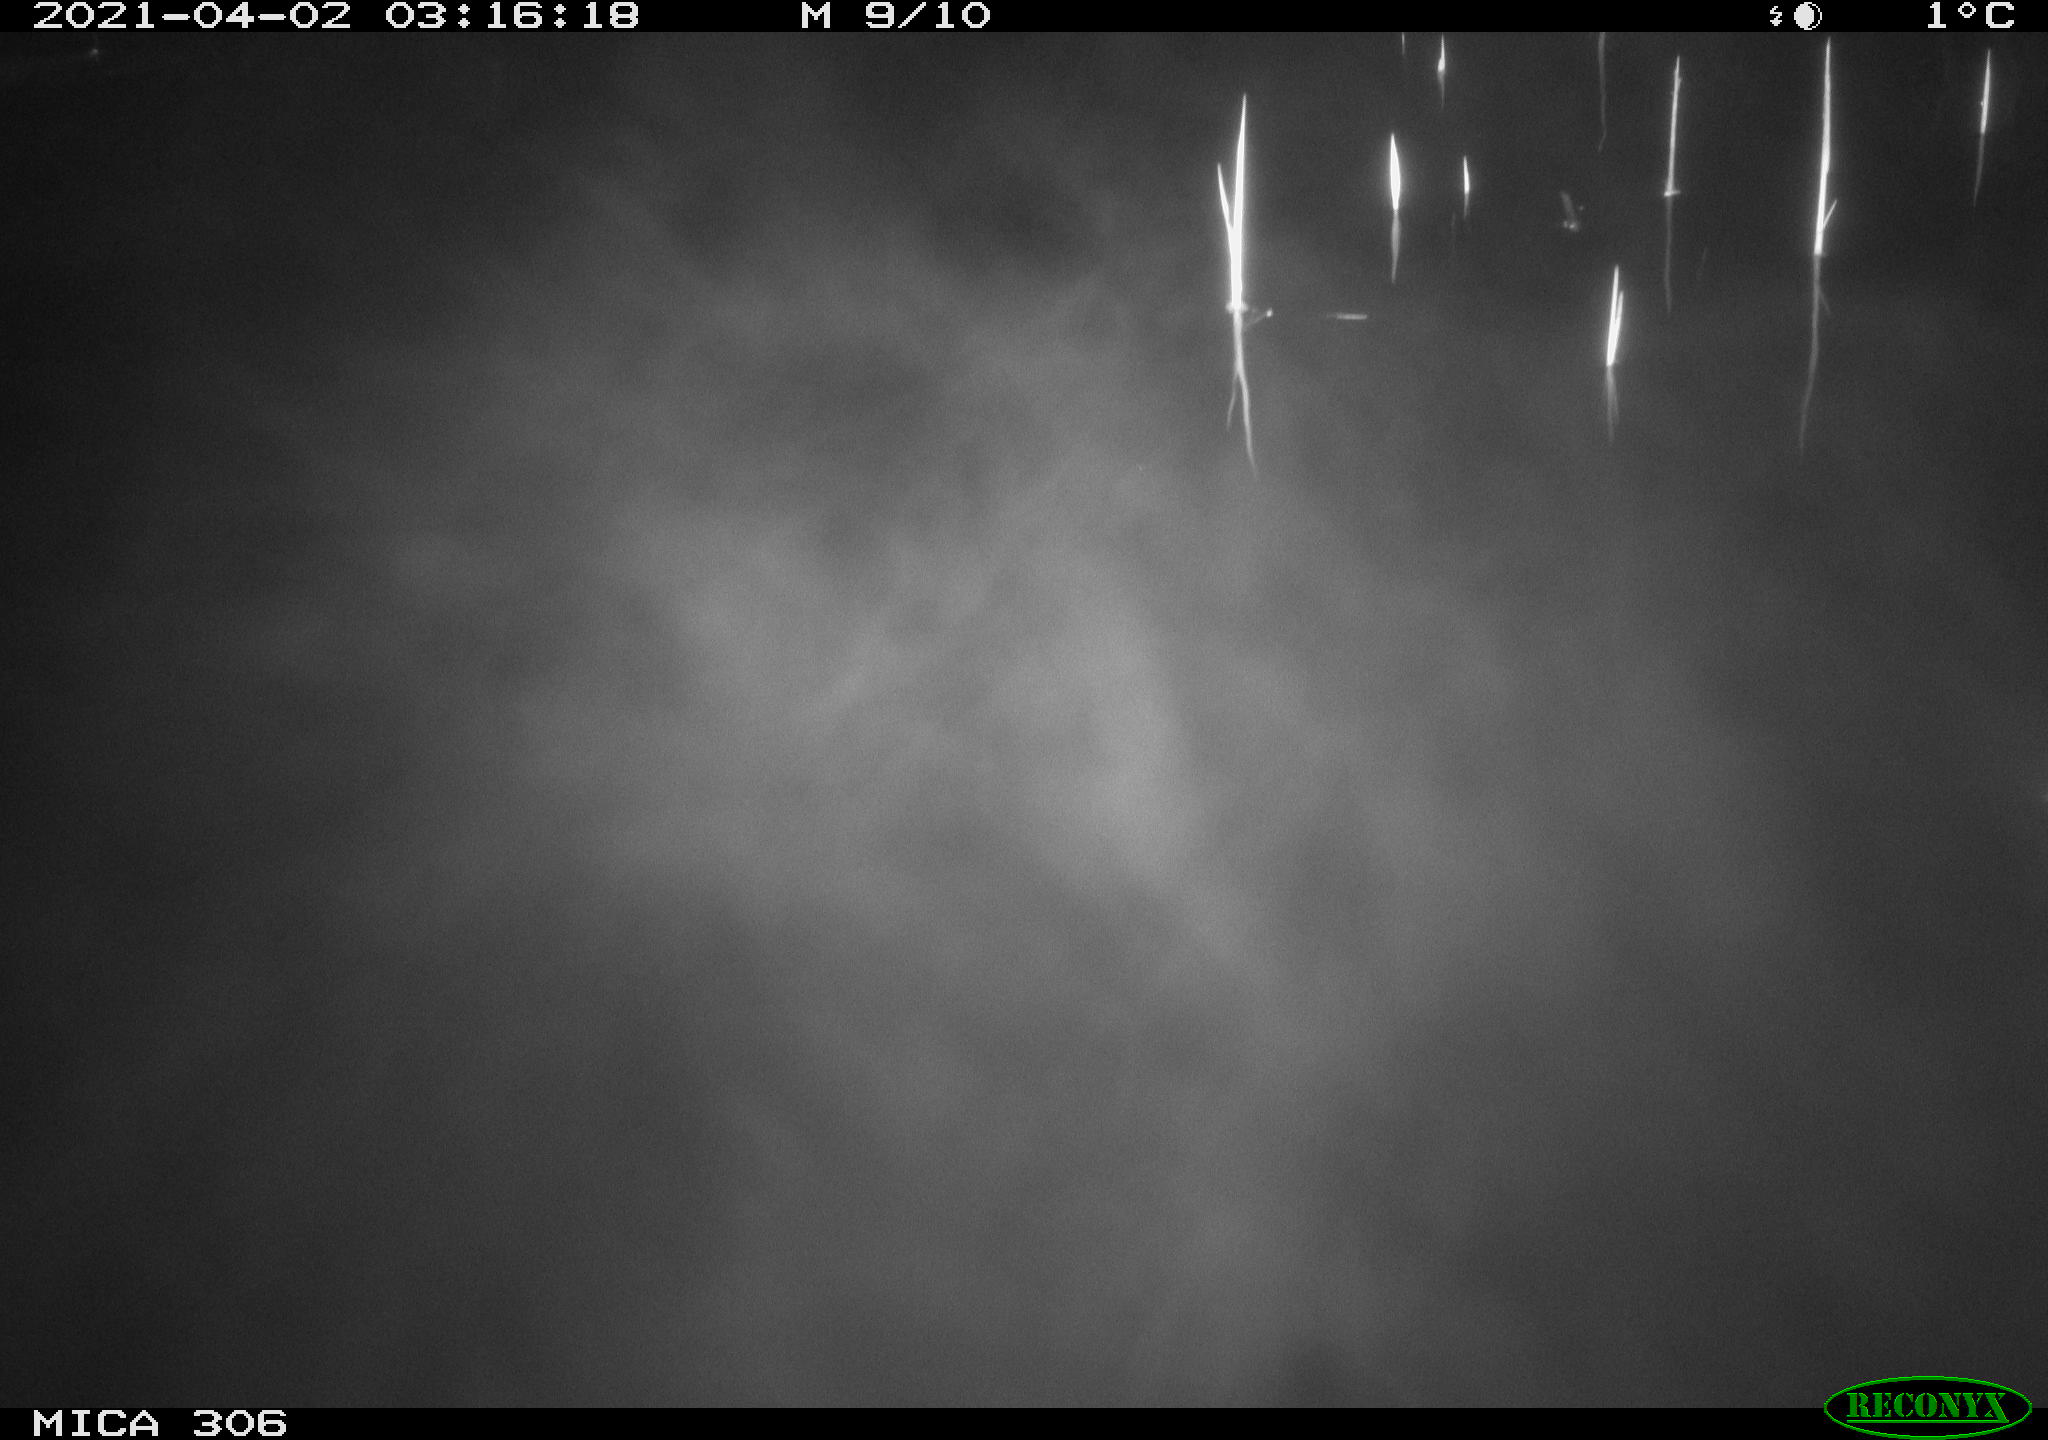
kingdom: Animalia
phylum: Chordata
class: Mammalia
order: Rodentia
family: Cricetidae
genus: Ondatra
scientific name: Ondatra zibethicus
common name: Muskrat
